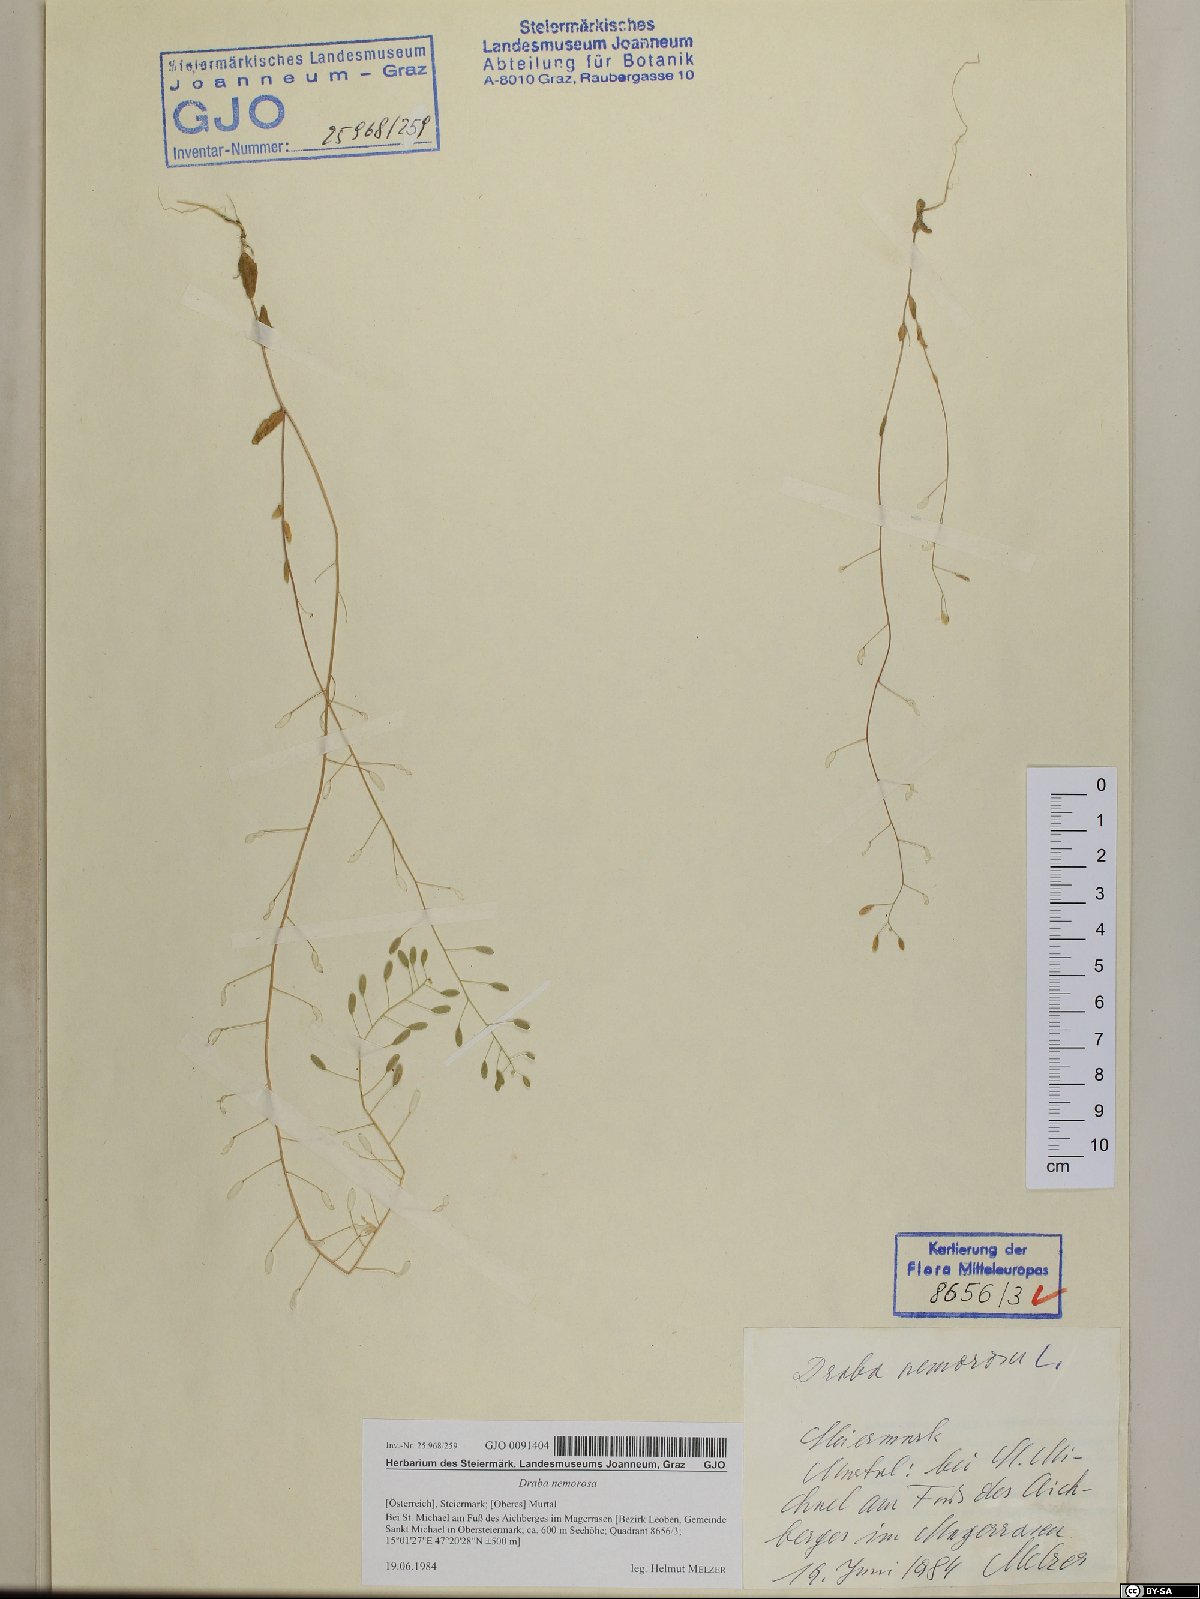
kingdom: Plantae
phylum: Tracheophyta
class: Magnoliopsida
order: Brassicales
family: Brassicaceae
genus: Draba
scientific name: Draba nemorosa
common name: Wood whitlow-grass
